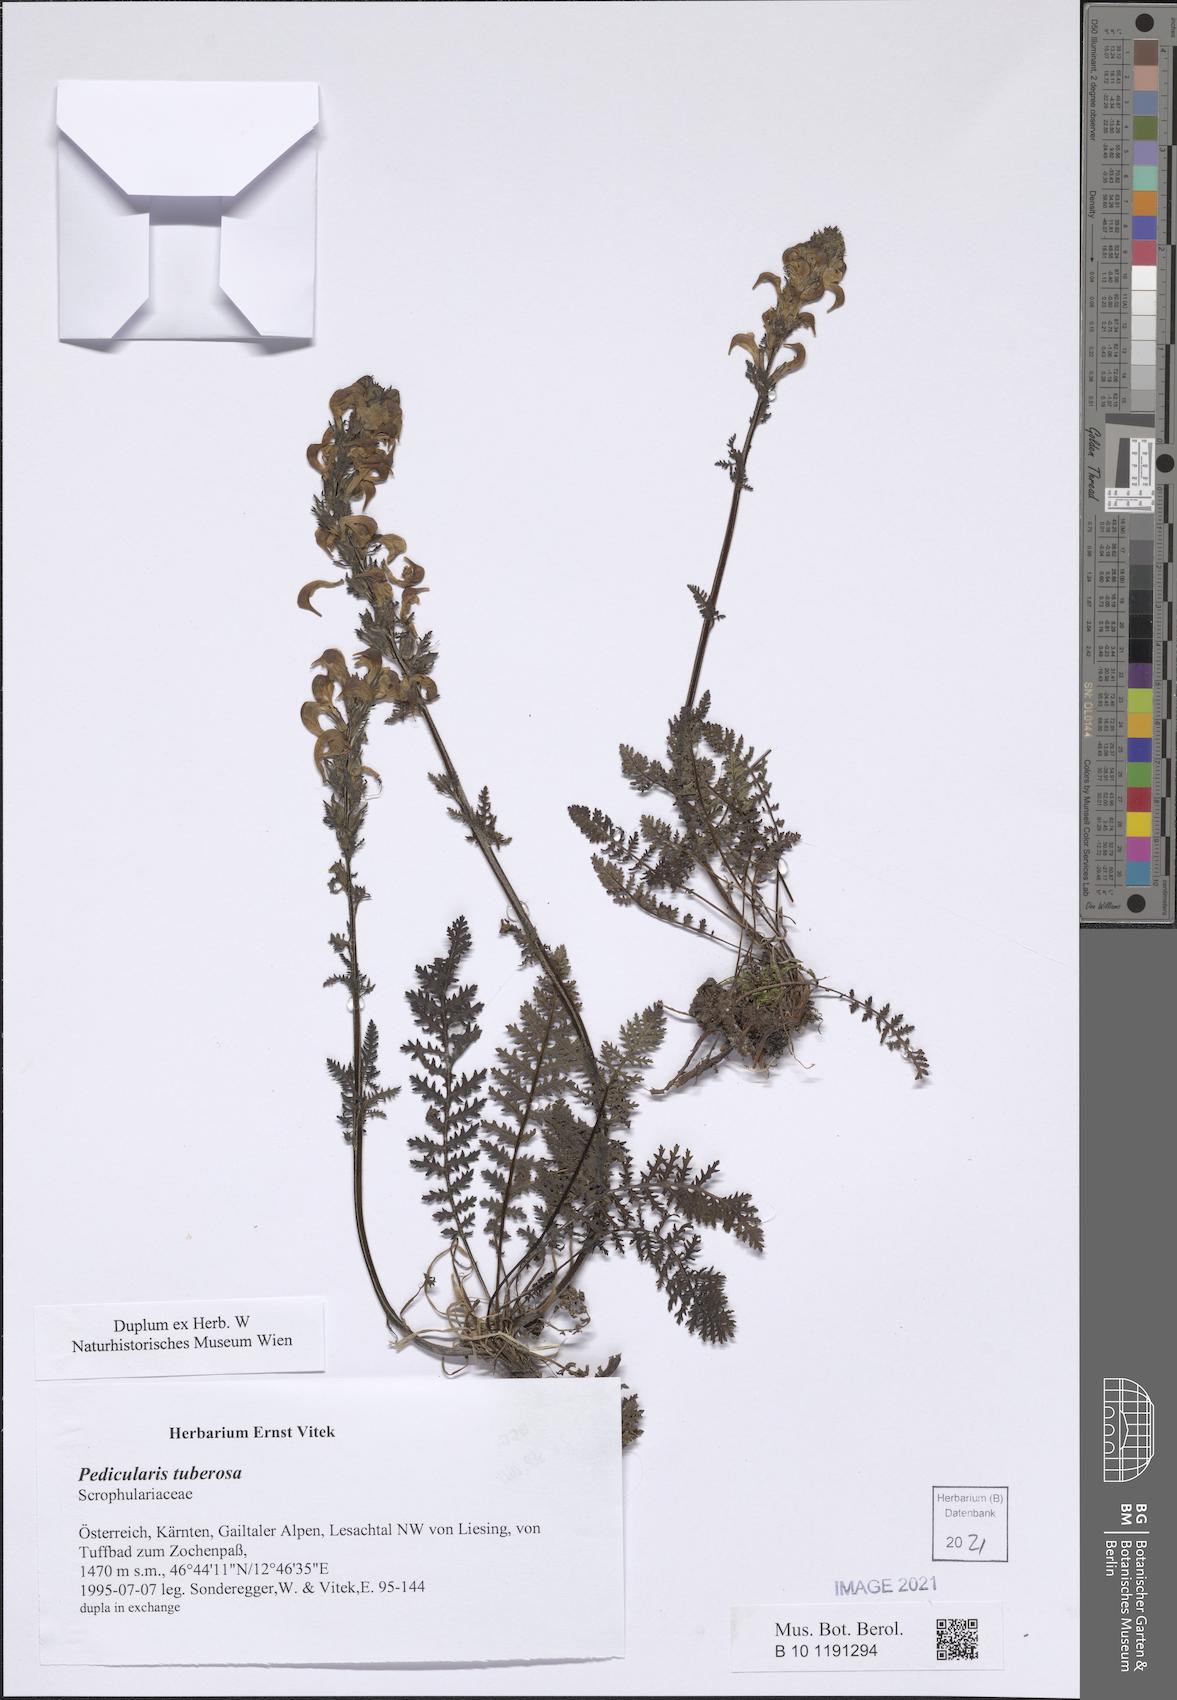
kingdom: Plantae
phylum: Tracheophyta
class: Magnoliopsida
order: Lamiales
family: Orobanchaceae
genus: Pedicularis
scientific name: Pedicularis tuberosa
